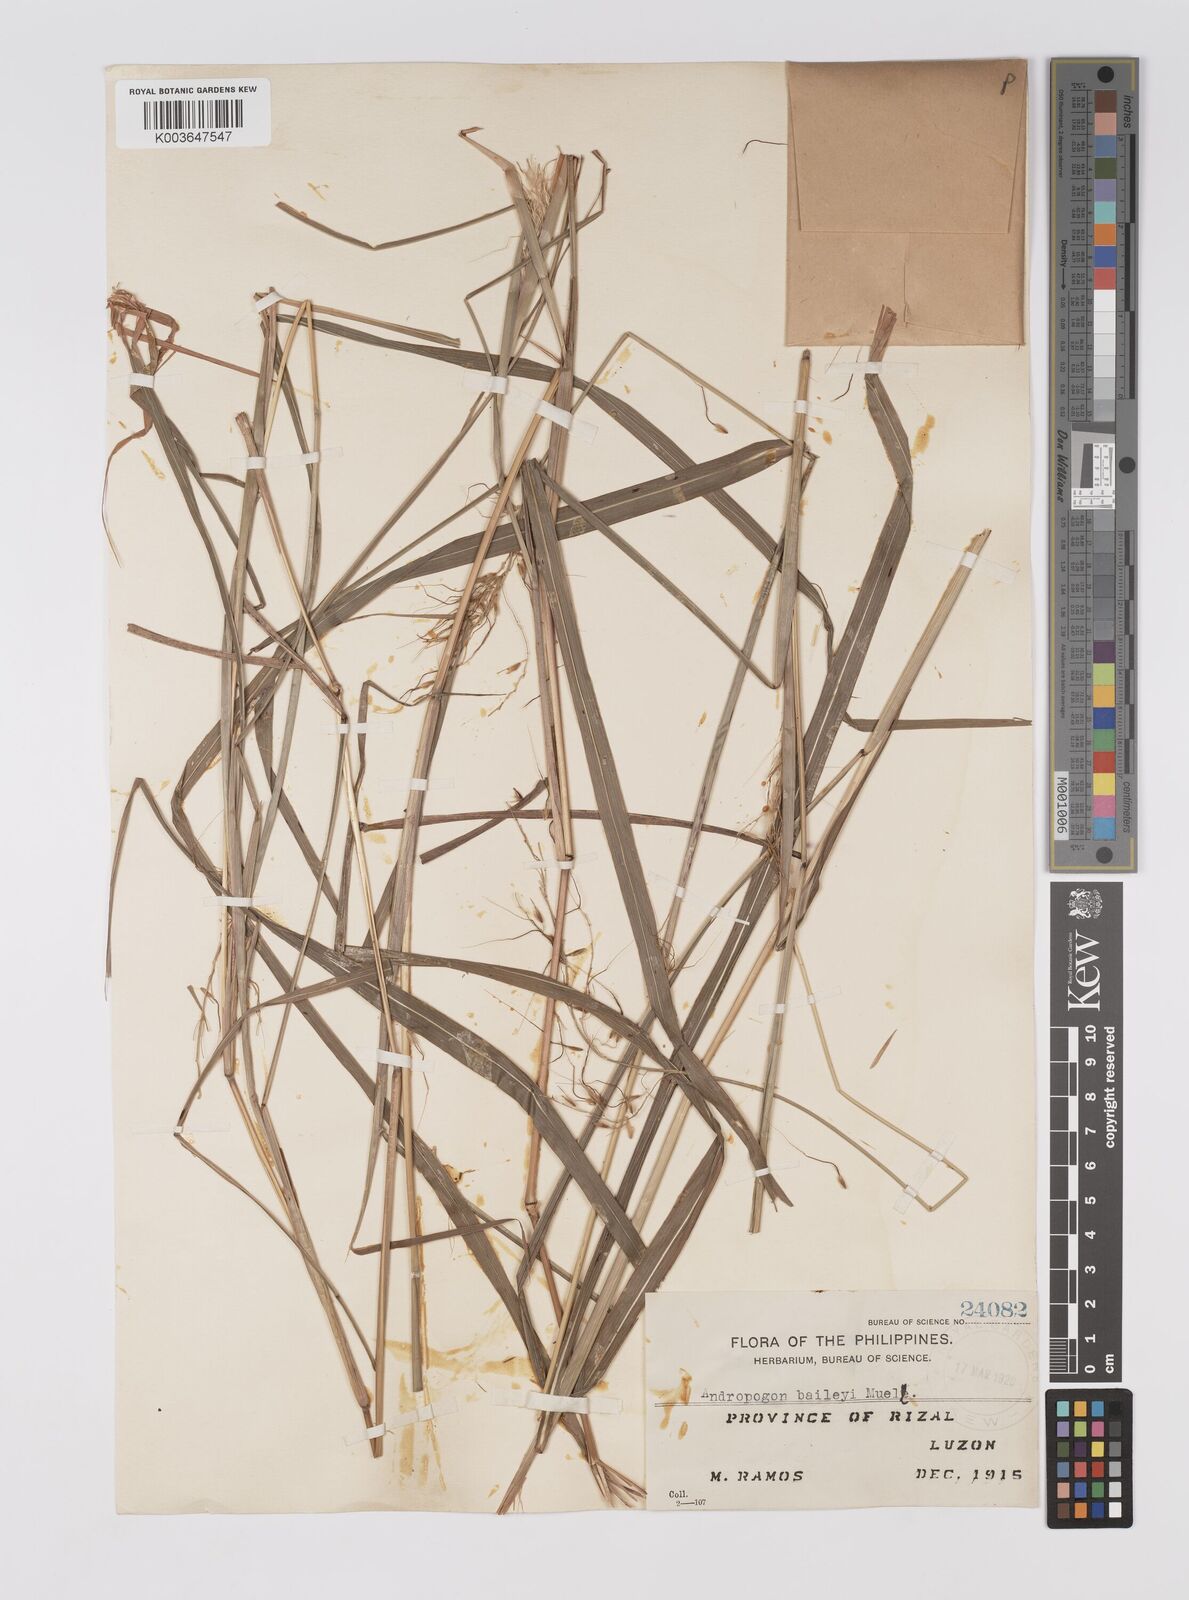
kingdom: Plantae
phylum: Tracheophyta
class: Liliopsida
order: Poales
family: Poaceae
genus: Sorghum
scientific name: Sorghum laxiflorum
